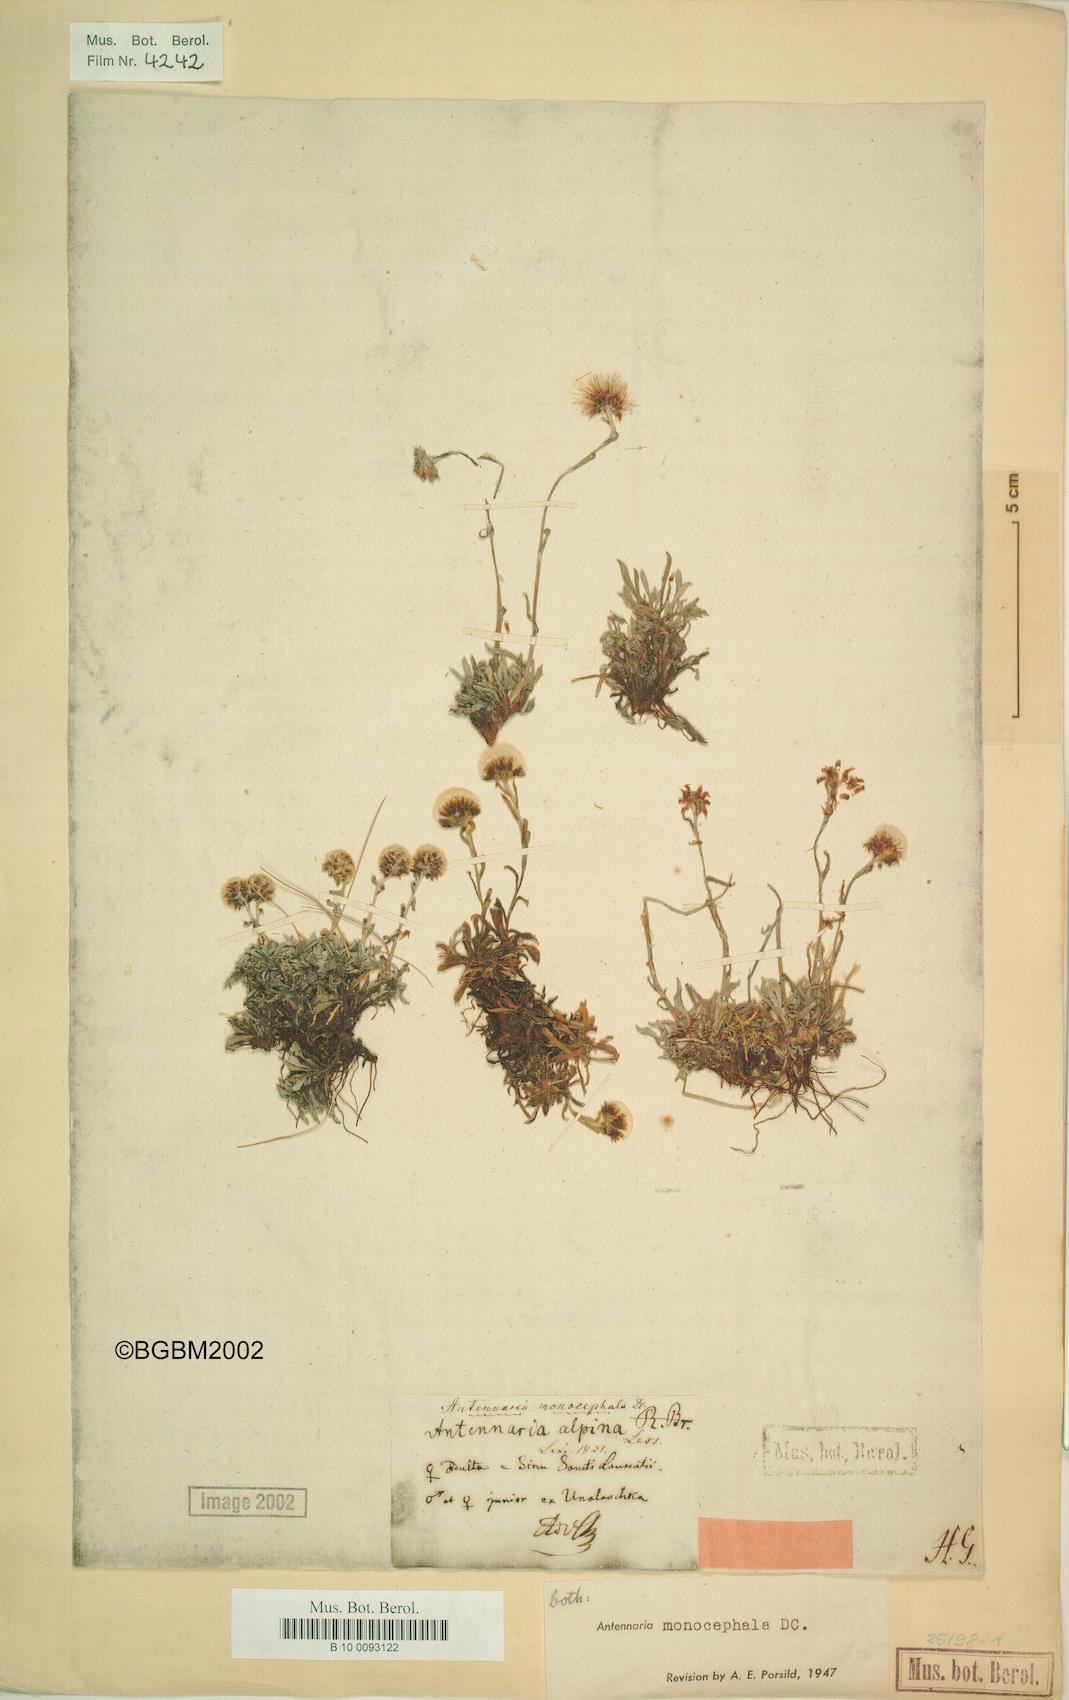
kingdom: Plantae
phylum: Tracheophyta
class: Magnoliopsida
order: Asterales
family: Asteraceae
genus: Antennaria
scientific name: Antennaria monocephala
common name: Pygmy pussytoes
